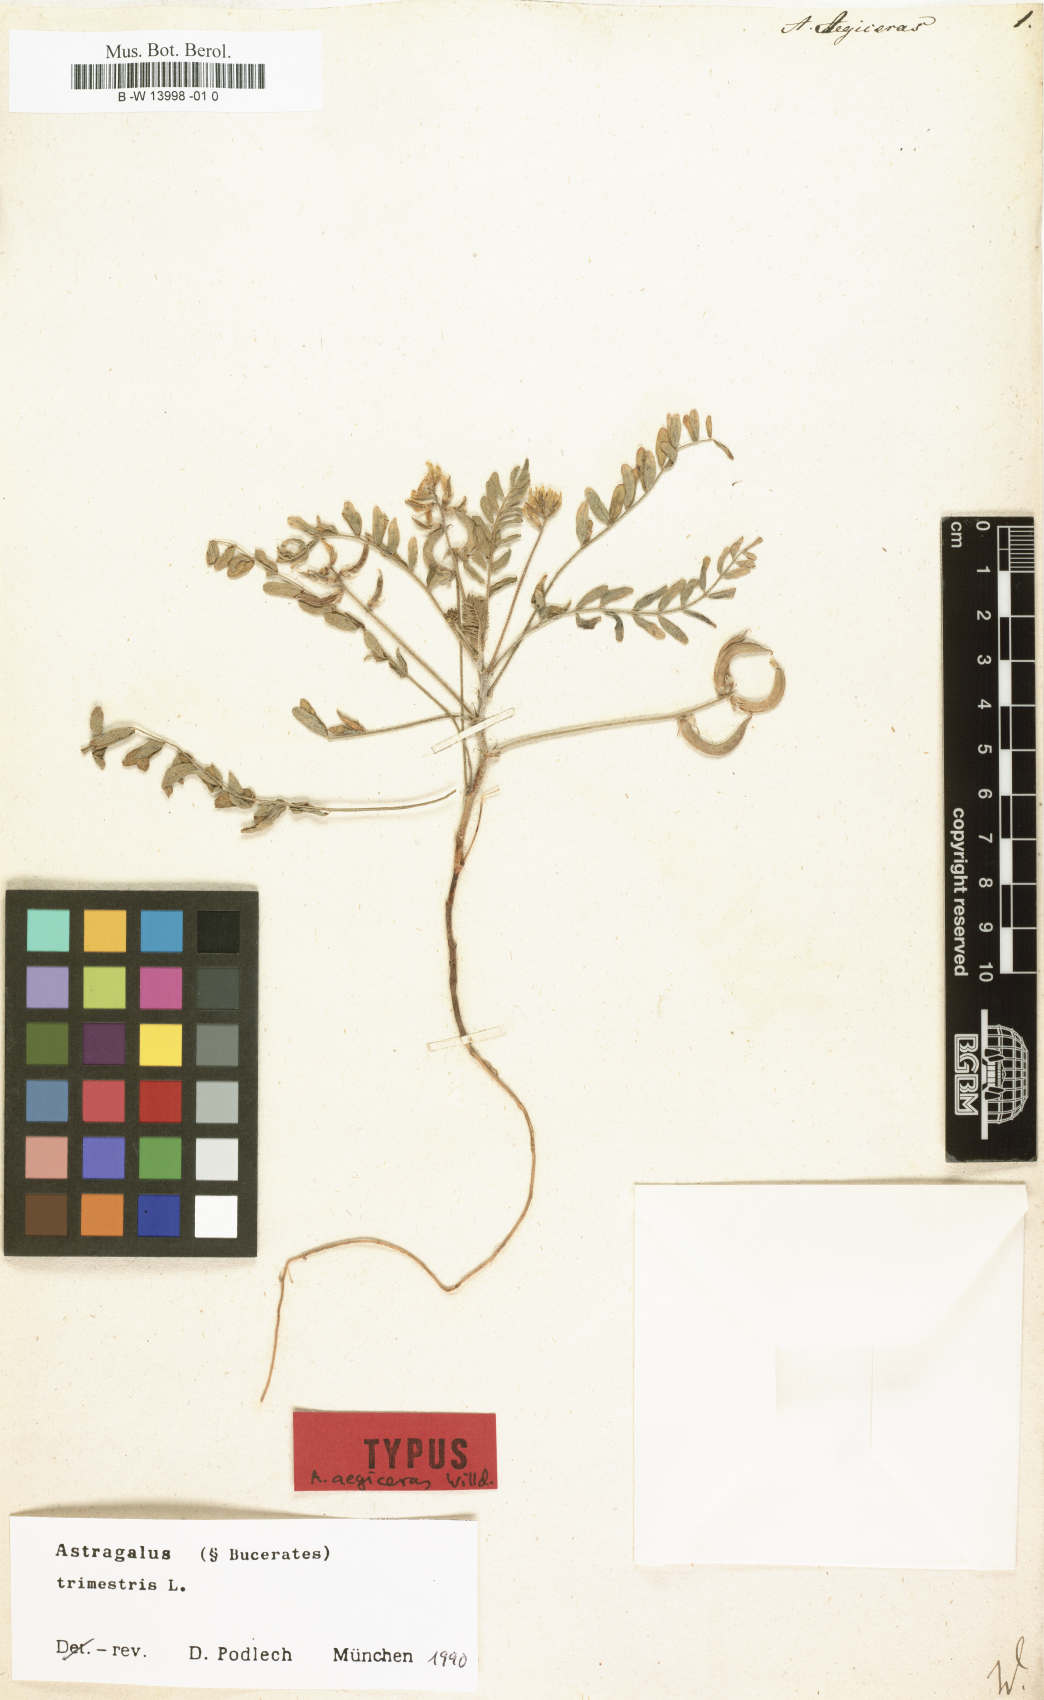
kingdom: Plantae
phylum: Tracheophyta
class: Magnoliopsida
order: Fabales
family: Fabaceae
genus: Astragalus
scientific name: Astragalus trimestris
